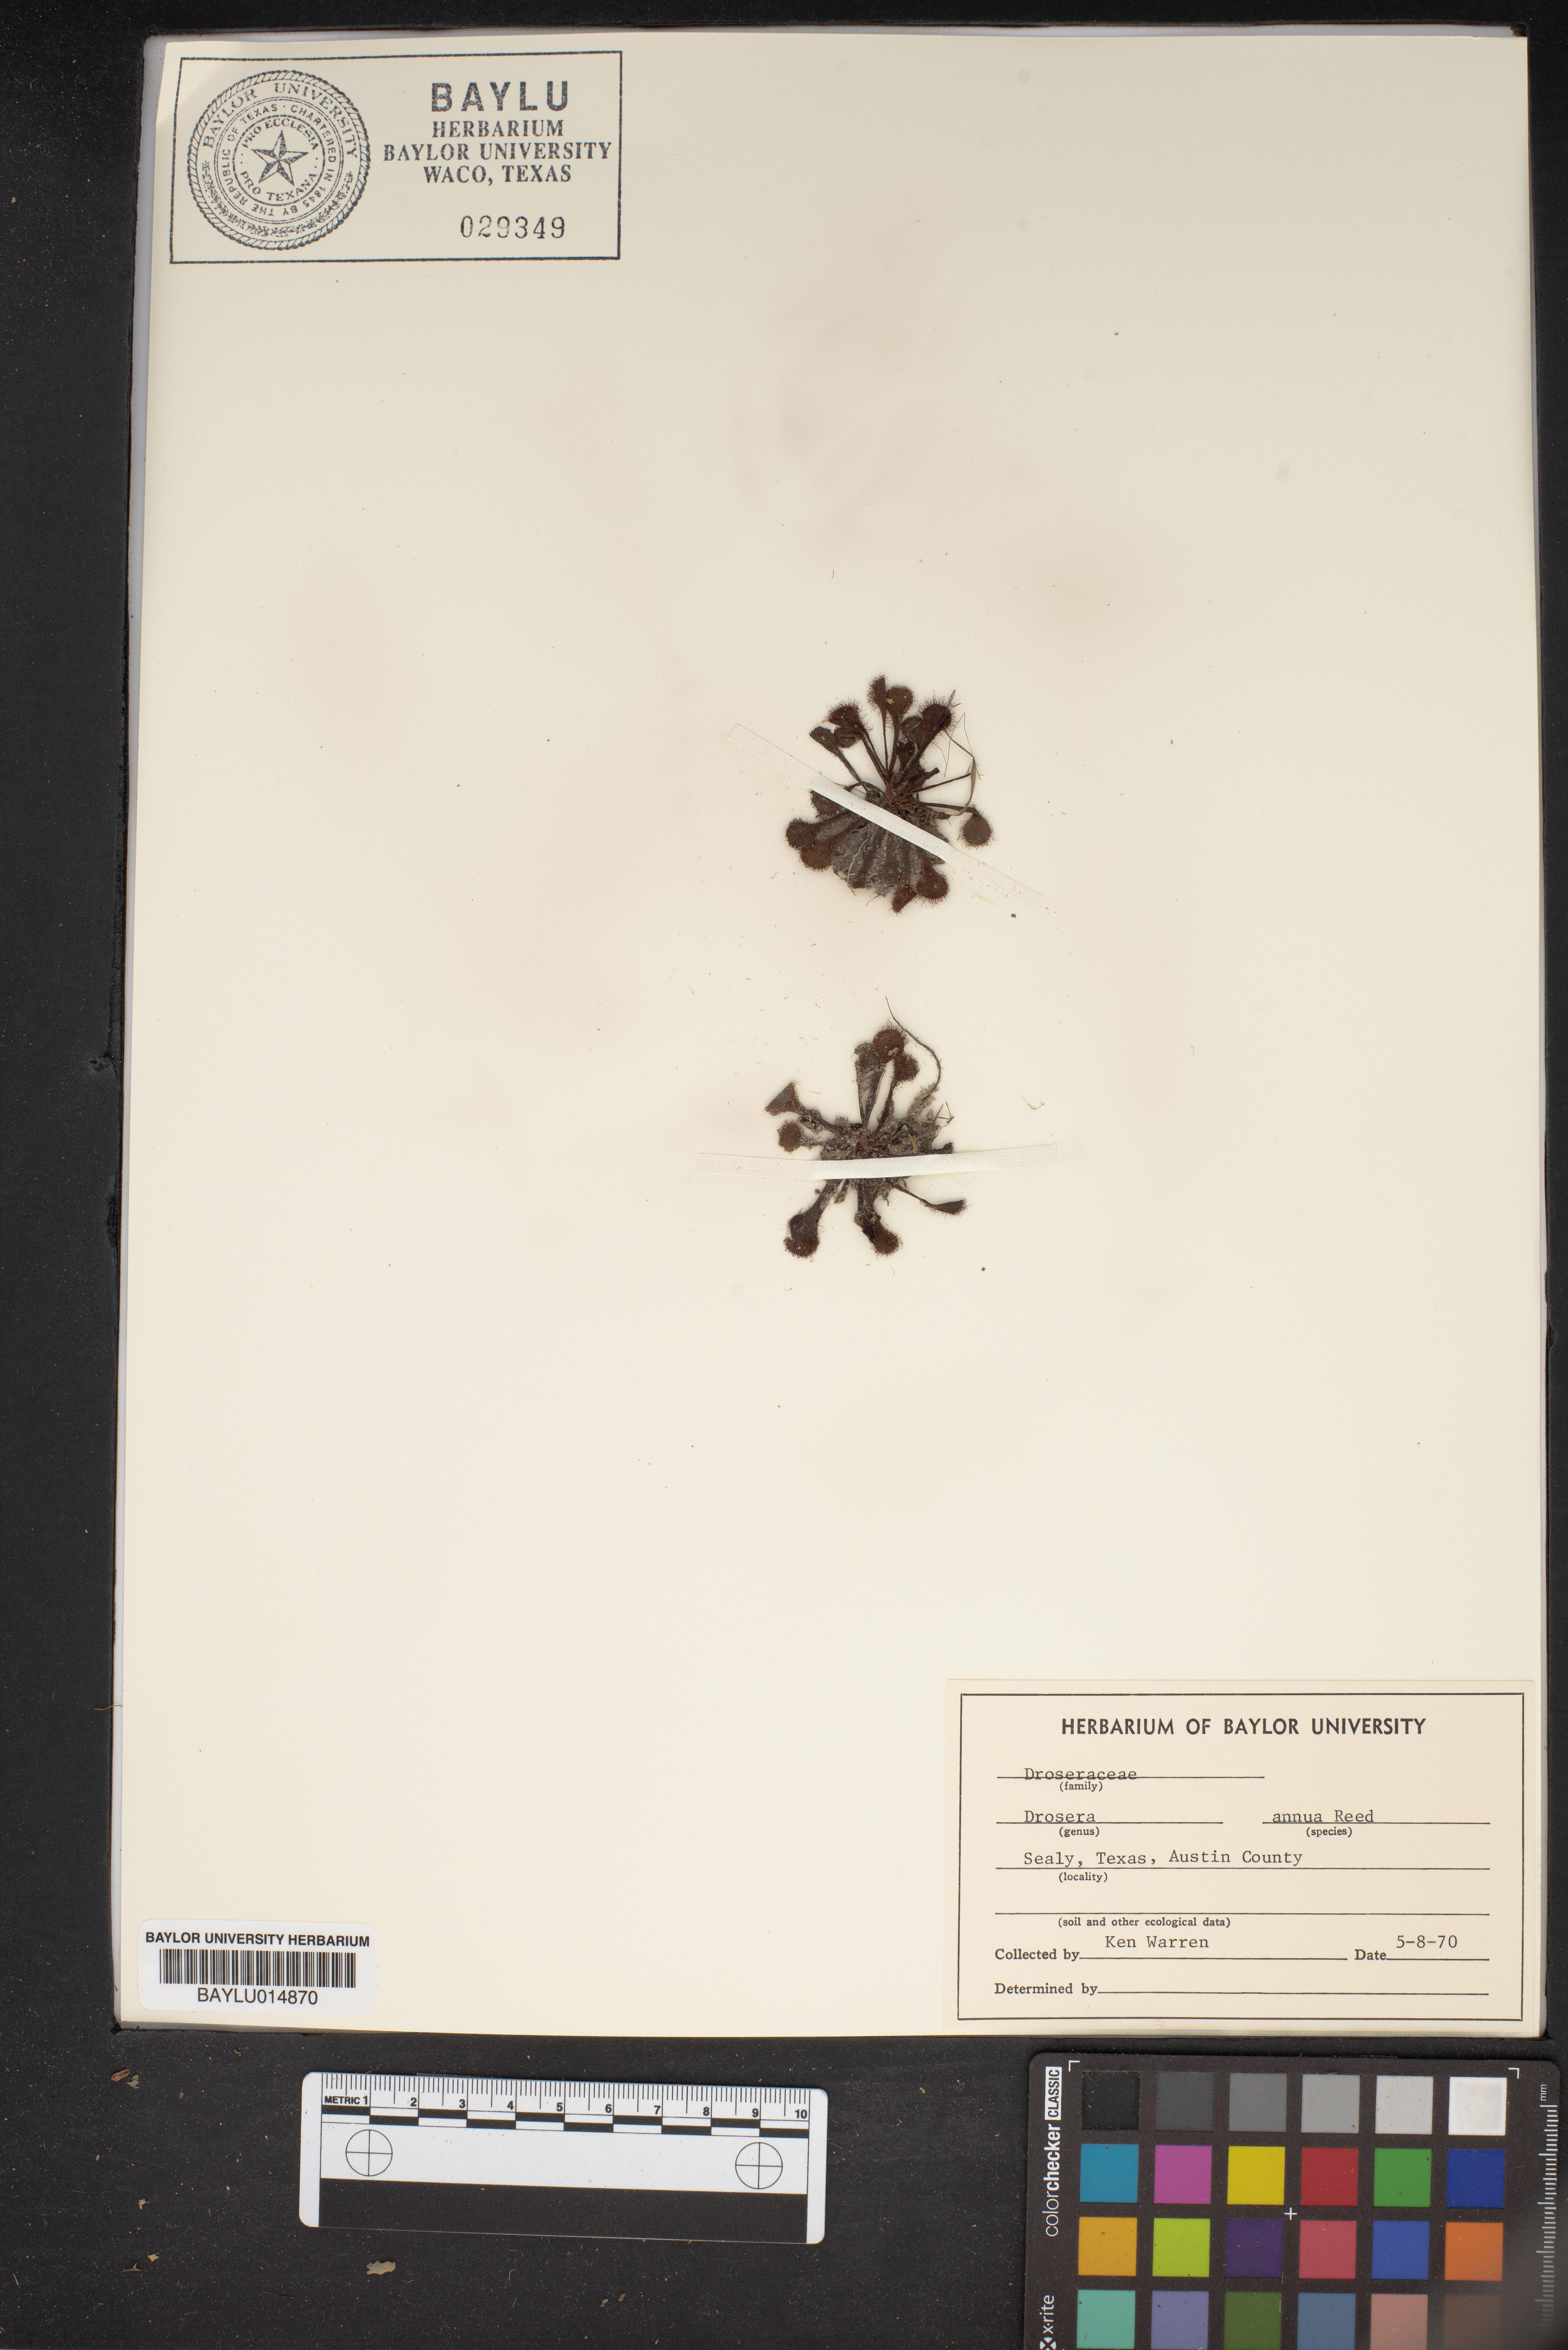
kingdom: Plantae
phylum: Tracheophyta
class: Magnoliopsida
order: Caryophyllales
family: Droseraceae
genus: Drosera
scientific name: Drosera brevifolia
